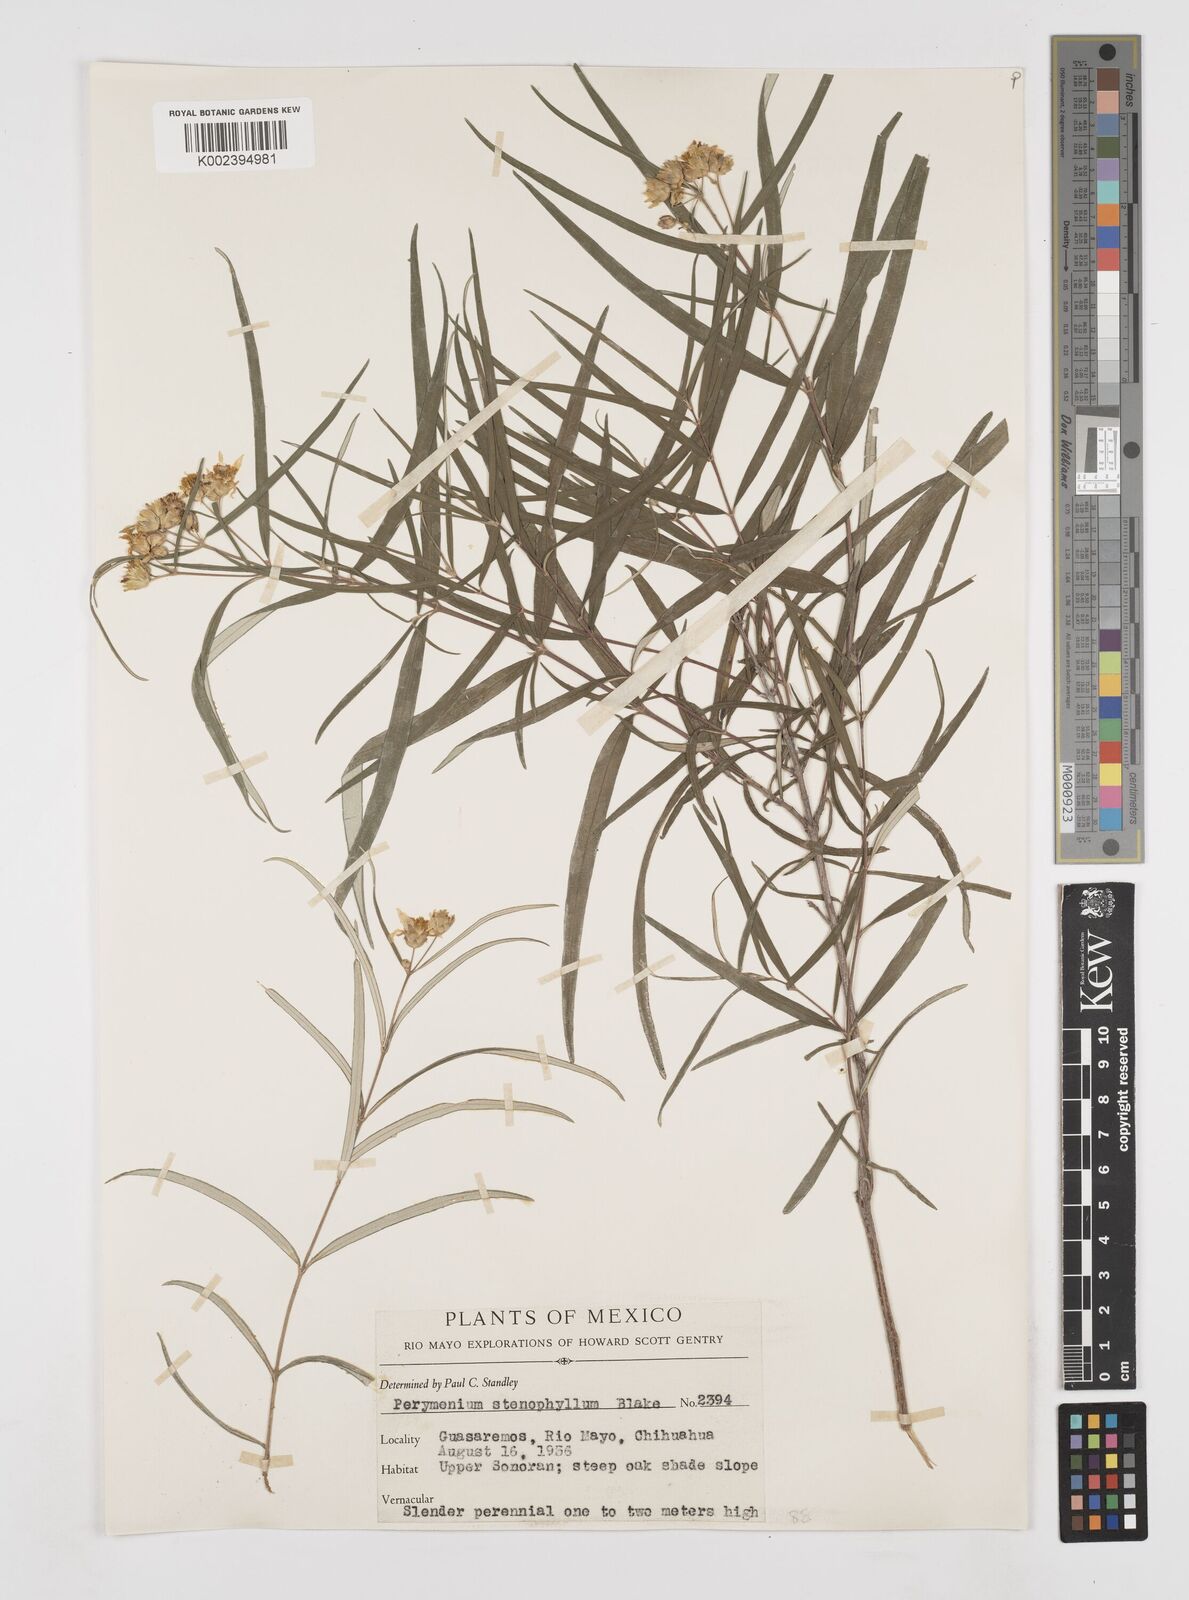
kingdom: Plantae
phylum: Tracheophyta
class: Magnoliopsida
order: Asterales
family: Asteraceae
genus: Perymenium
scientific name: Perymenium stenophyllum
